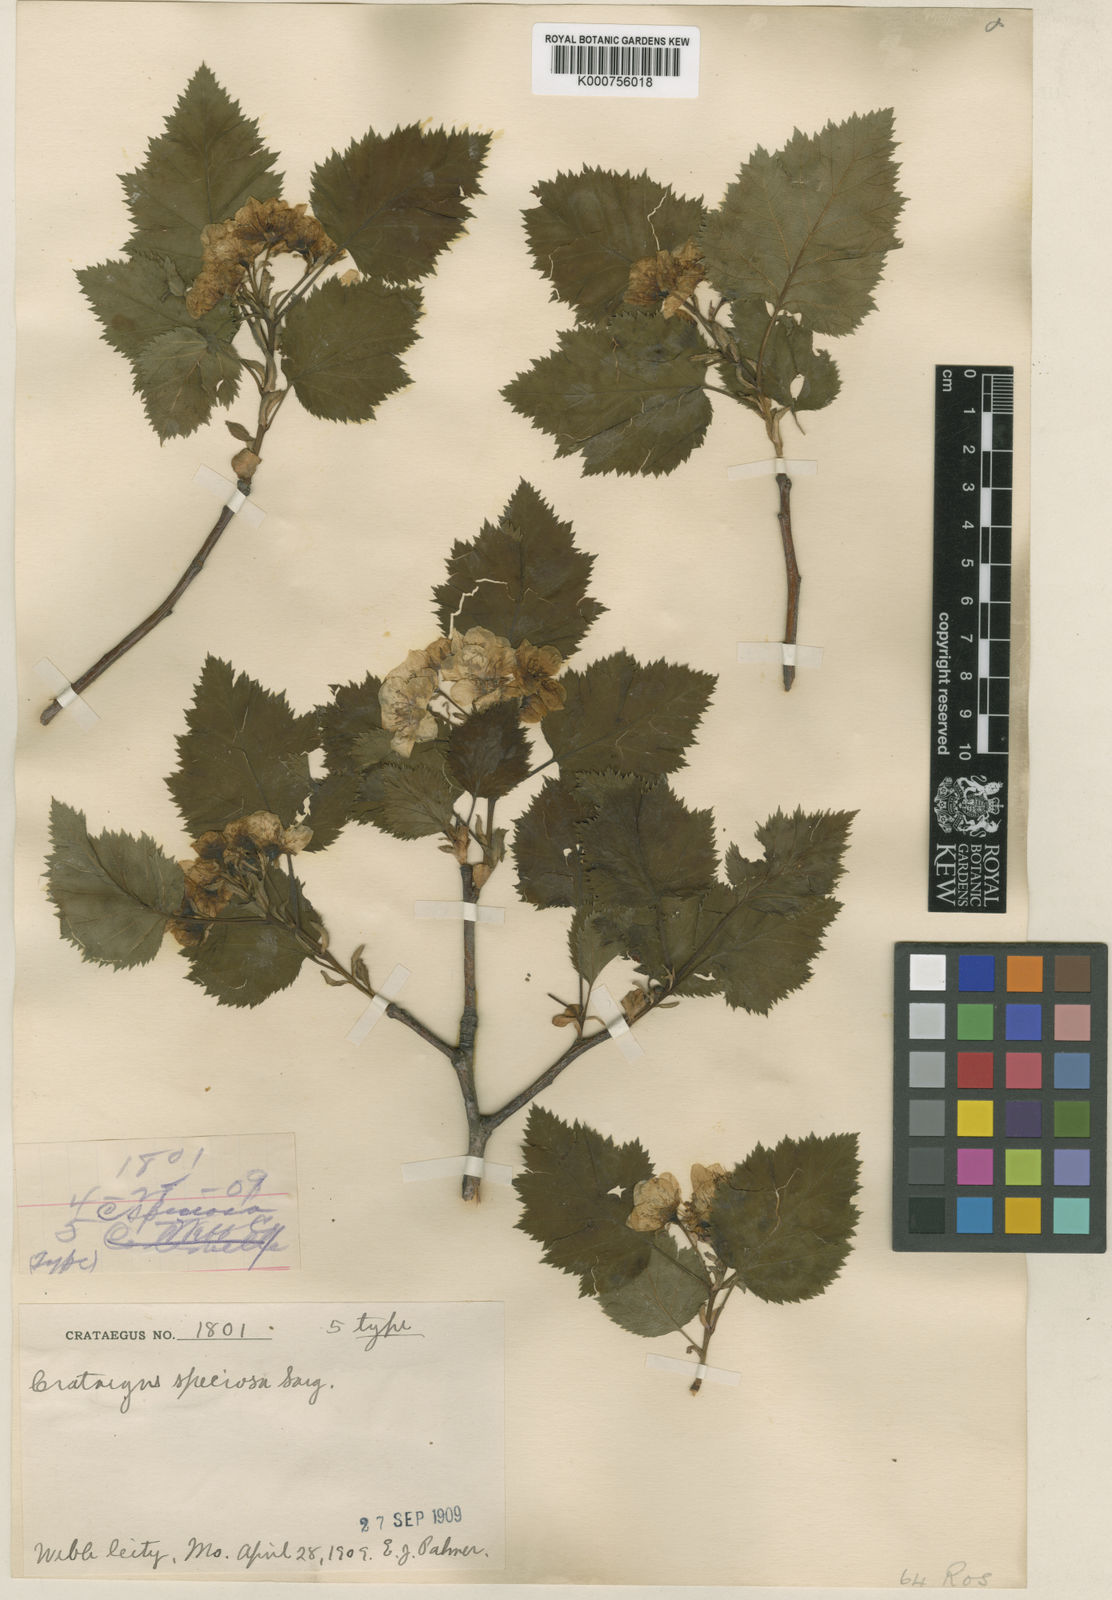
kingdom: Plantae
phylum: Tracheophyta
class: Magnoliopsida
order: Rosales
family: Rosaceae
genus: Crataegus
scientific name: Crataegus coccinioides
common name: Large-flowered cockspurthorn
